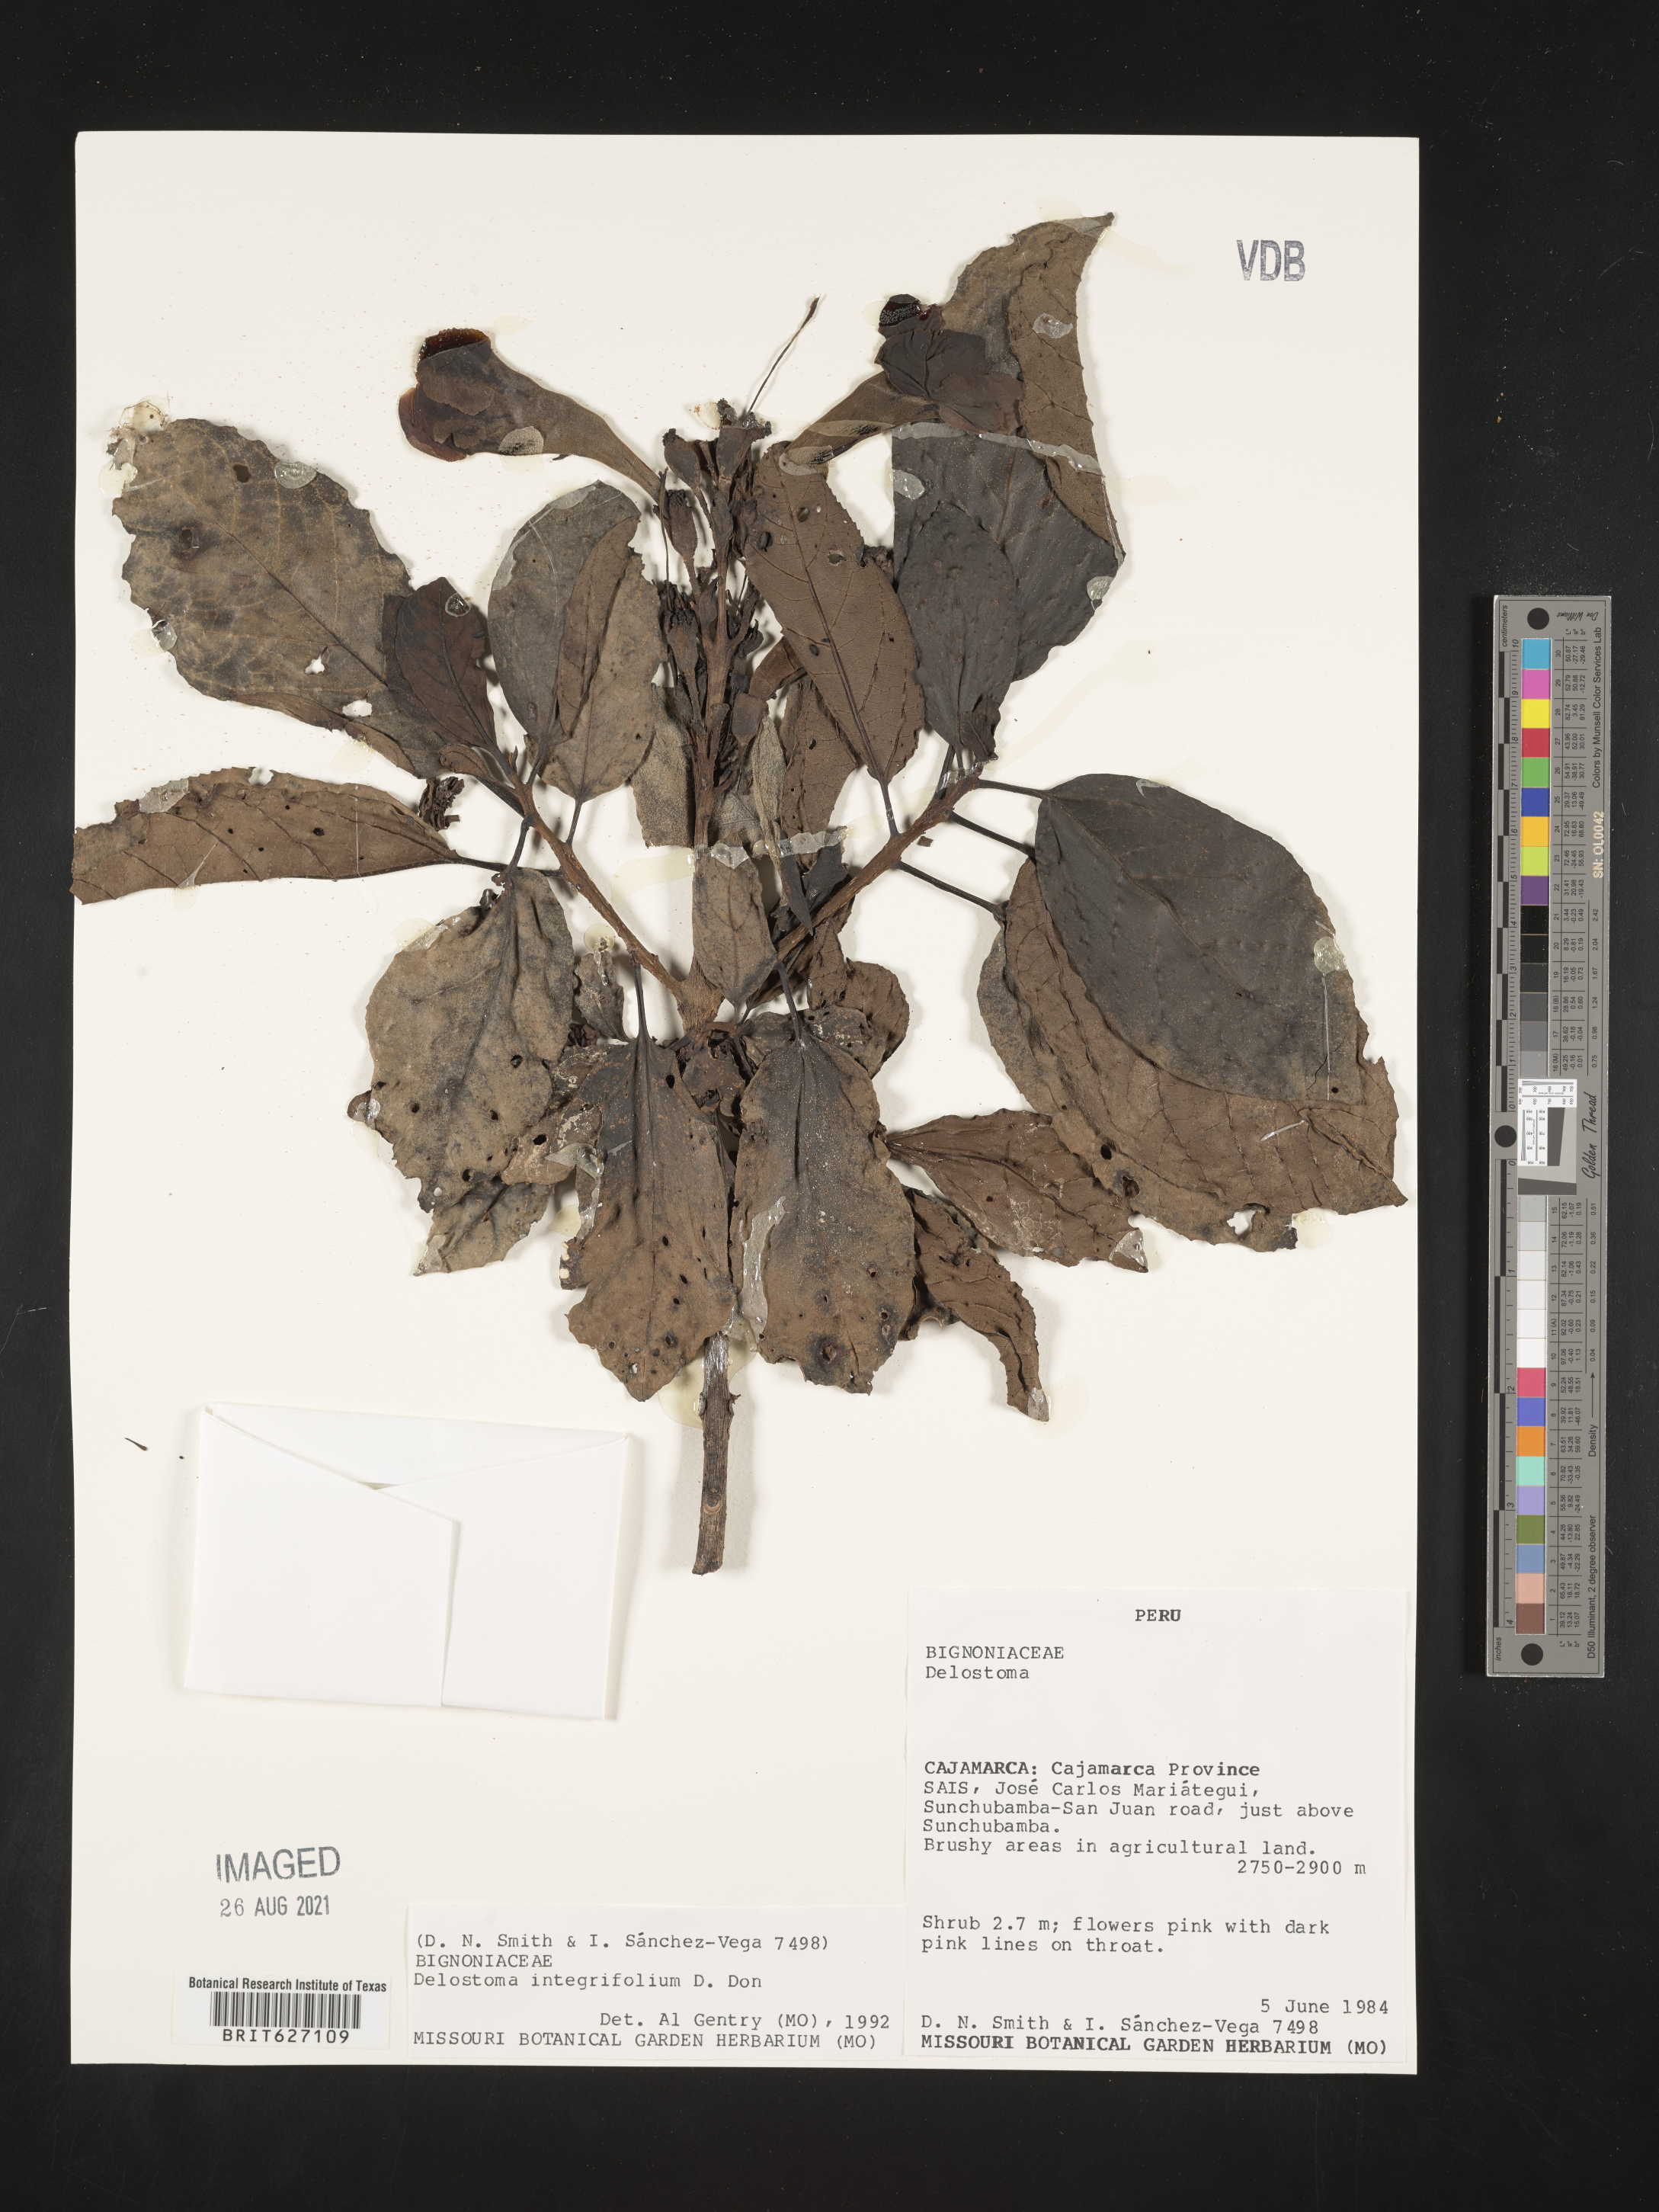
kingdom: Plantae
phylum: Tracheophyta
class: Magnoliopsida
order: Lamiales
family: Bignoniaceae
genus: Delostoma
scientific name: Delostoma integrifolium
